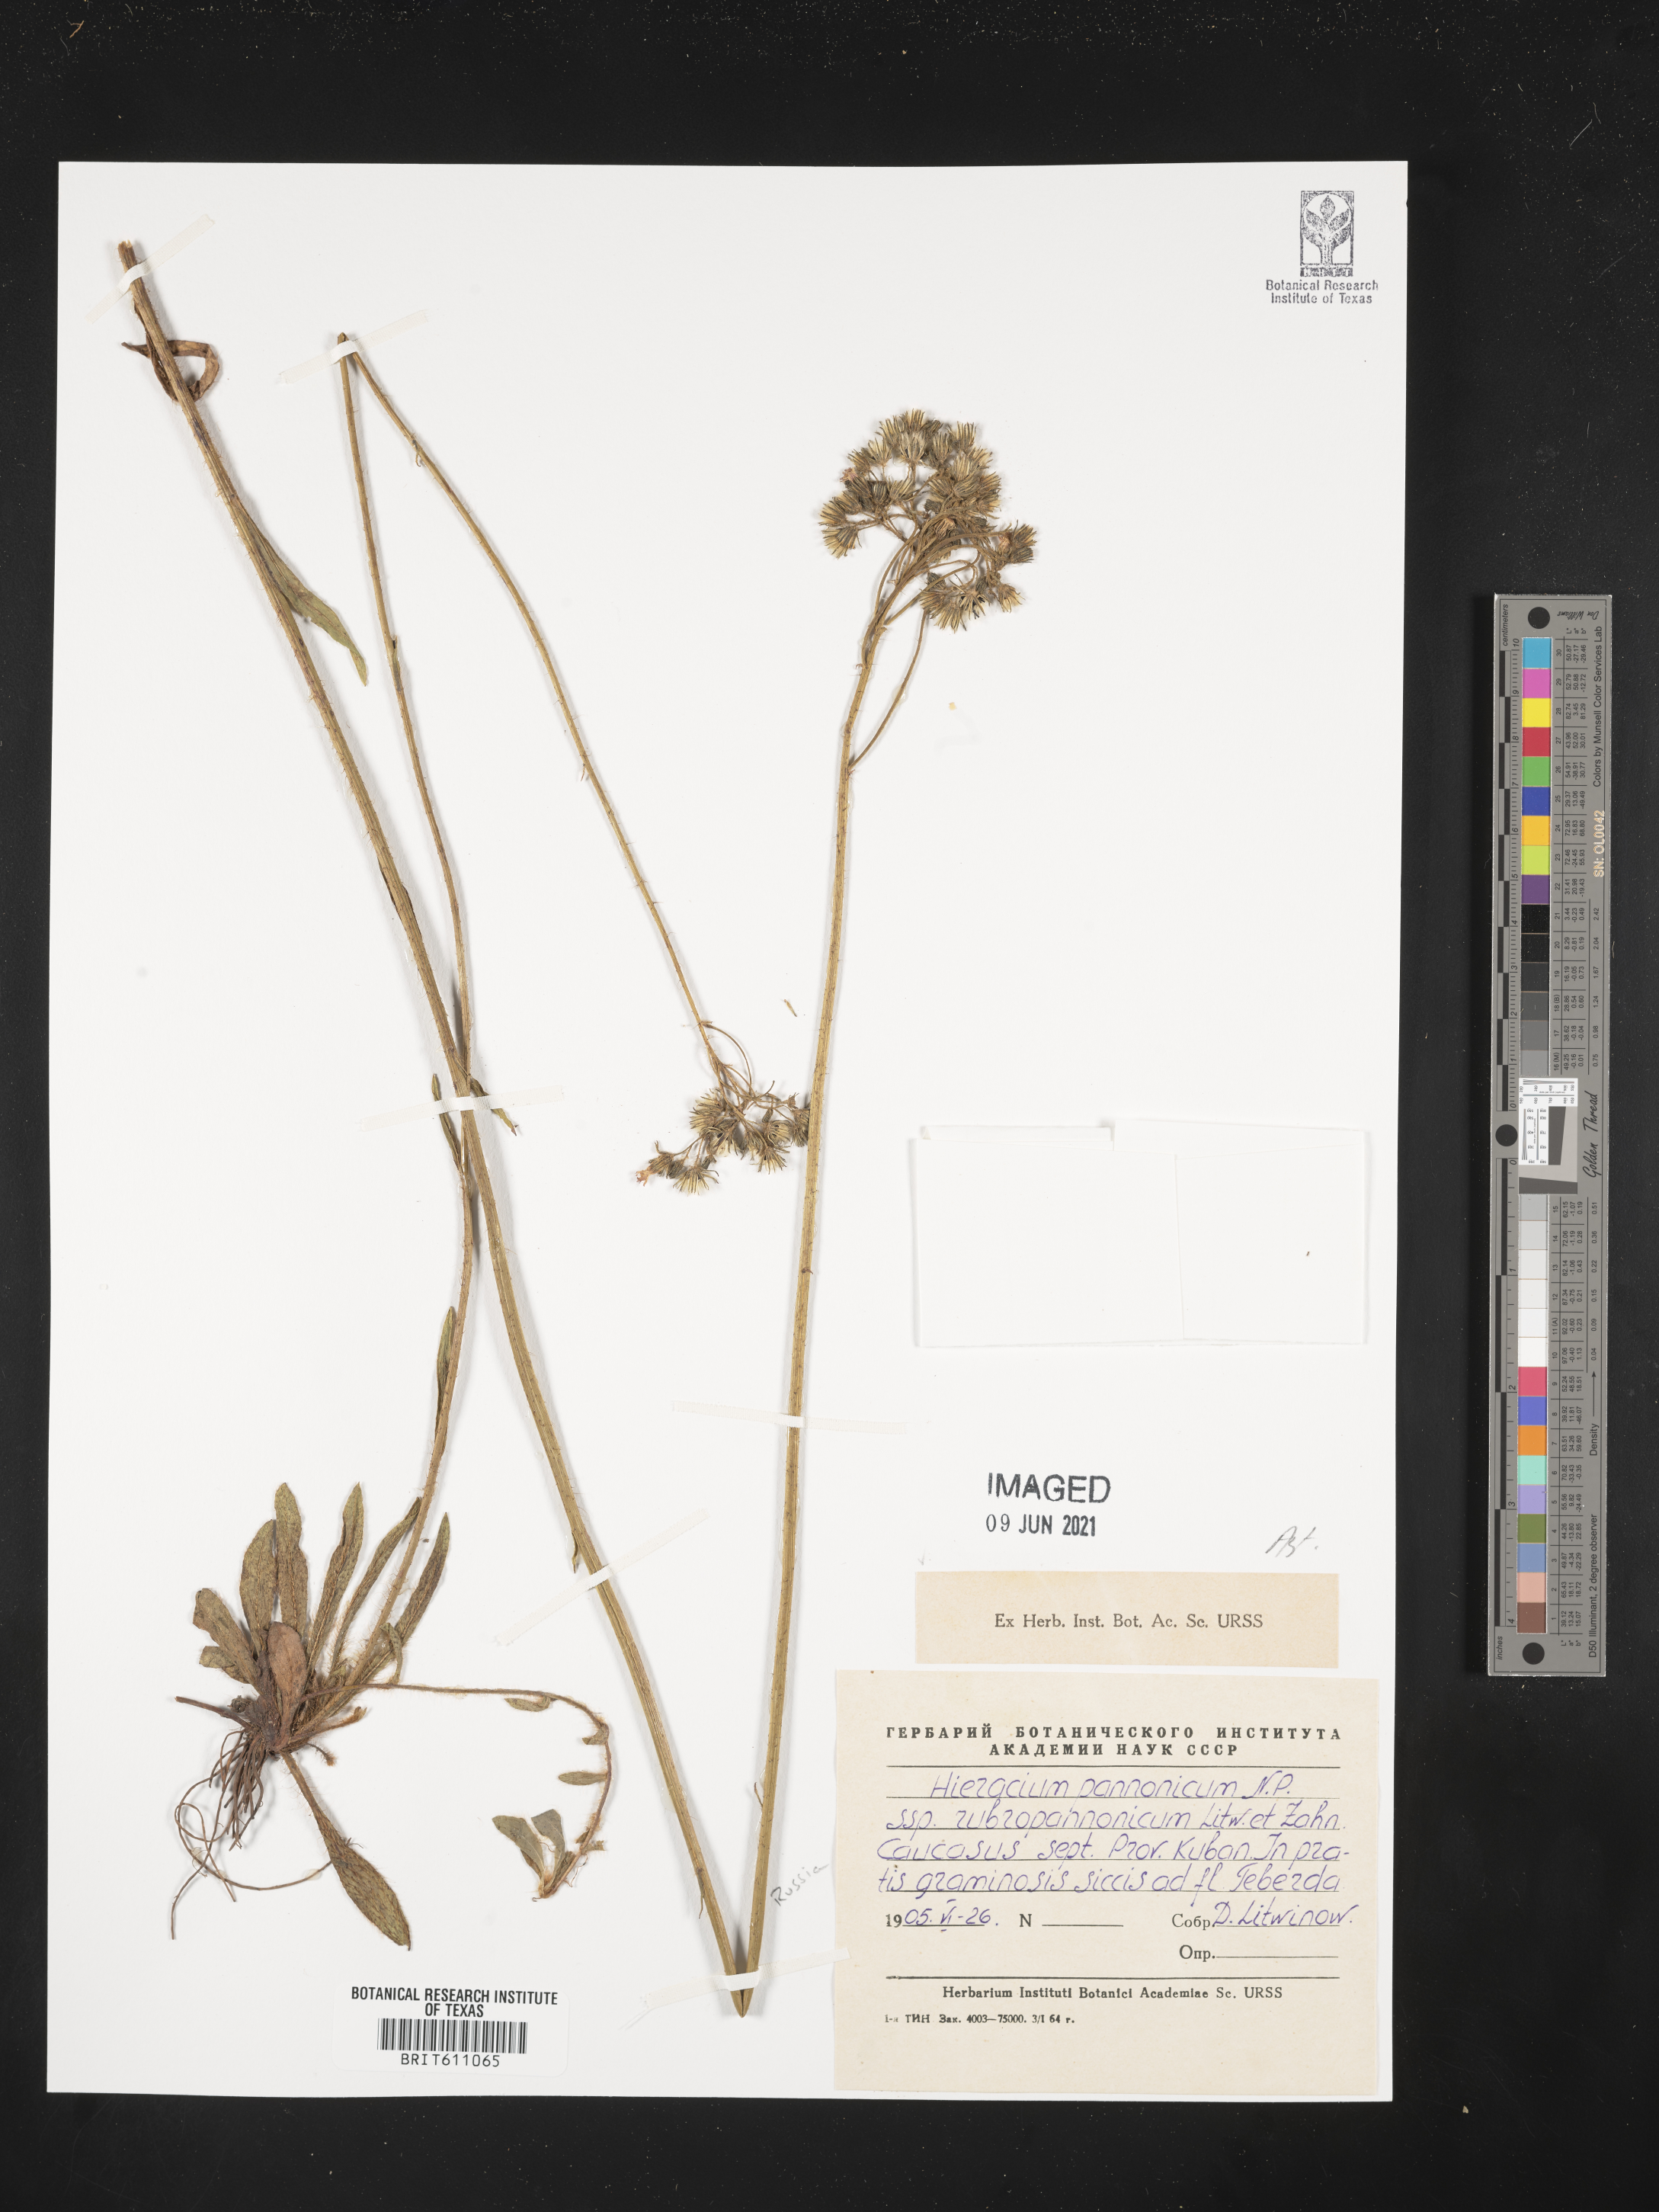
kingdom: Plantae
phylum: Tracheophyta
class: Magnoliopsida
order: Asterales
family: Asteraceae
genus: Crepis
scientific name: Crepis pannonica
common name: Pasture hawksbeard
